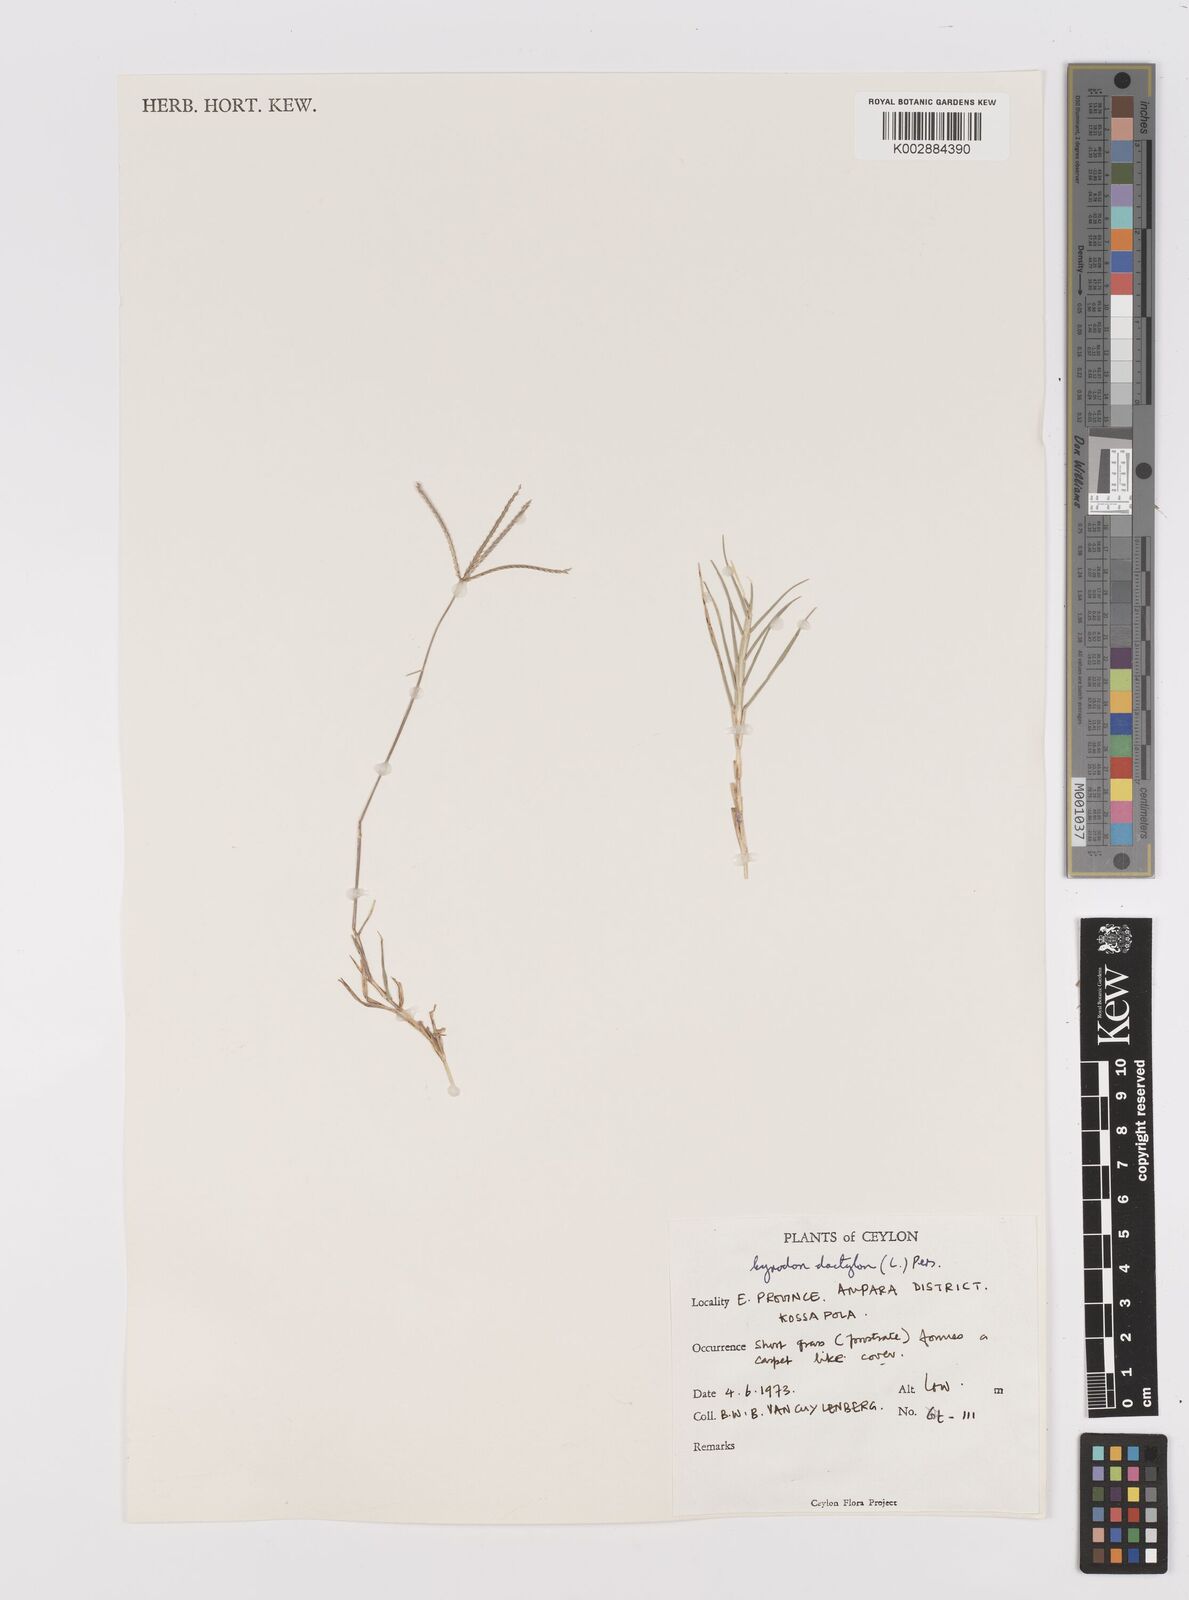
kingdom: Plantae
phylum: Tracheophyta
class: Liliopsida
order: Poales
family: Poaceae
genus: Cynodon
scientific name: Cynodon dactylon
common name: Bermuda grass
